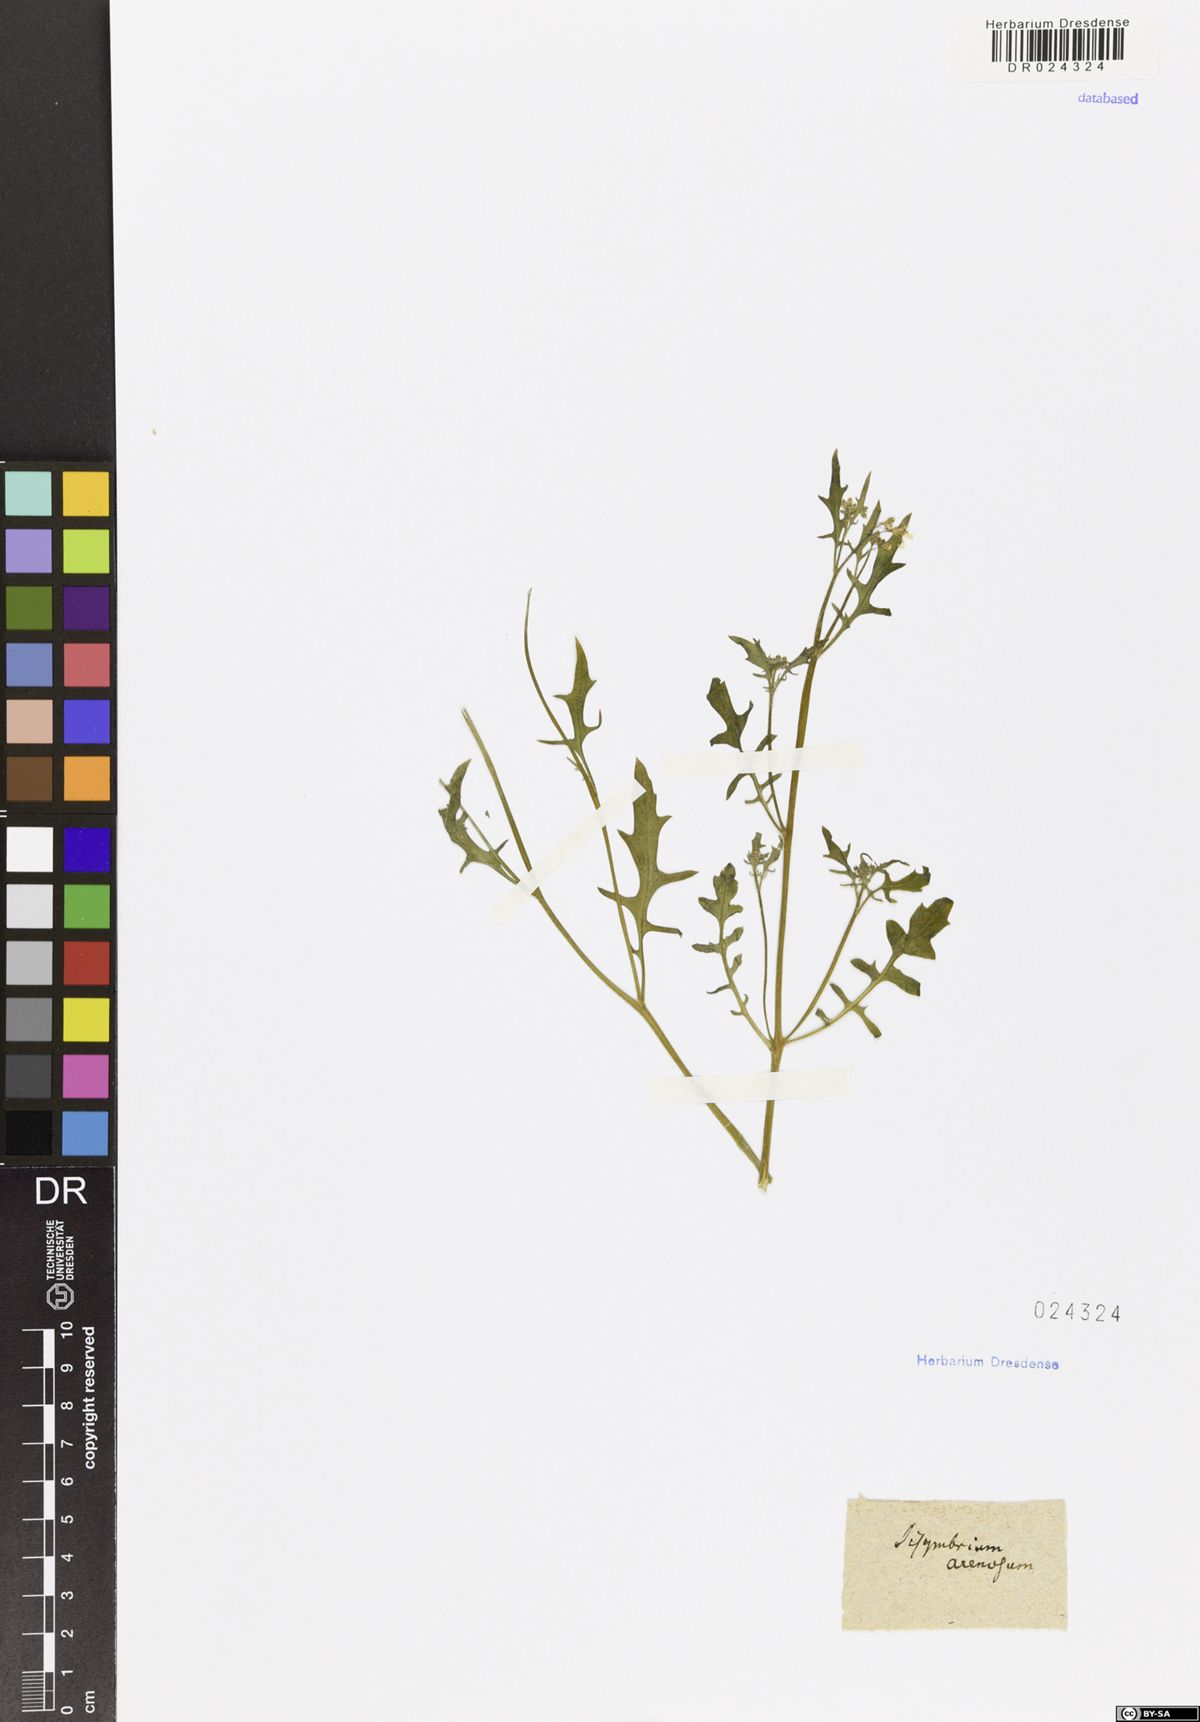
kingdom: Plantae
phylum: Tracheophyta
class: Magnoliopsida
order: Brassicales
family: Brassicaceae
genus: Arabidopsis
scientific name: Arabidopsis arenosa
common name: Sand rock-cress
